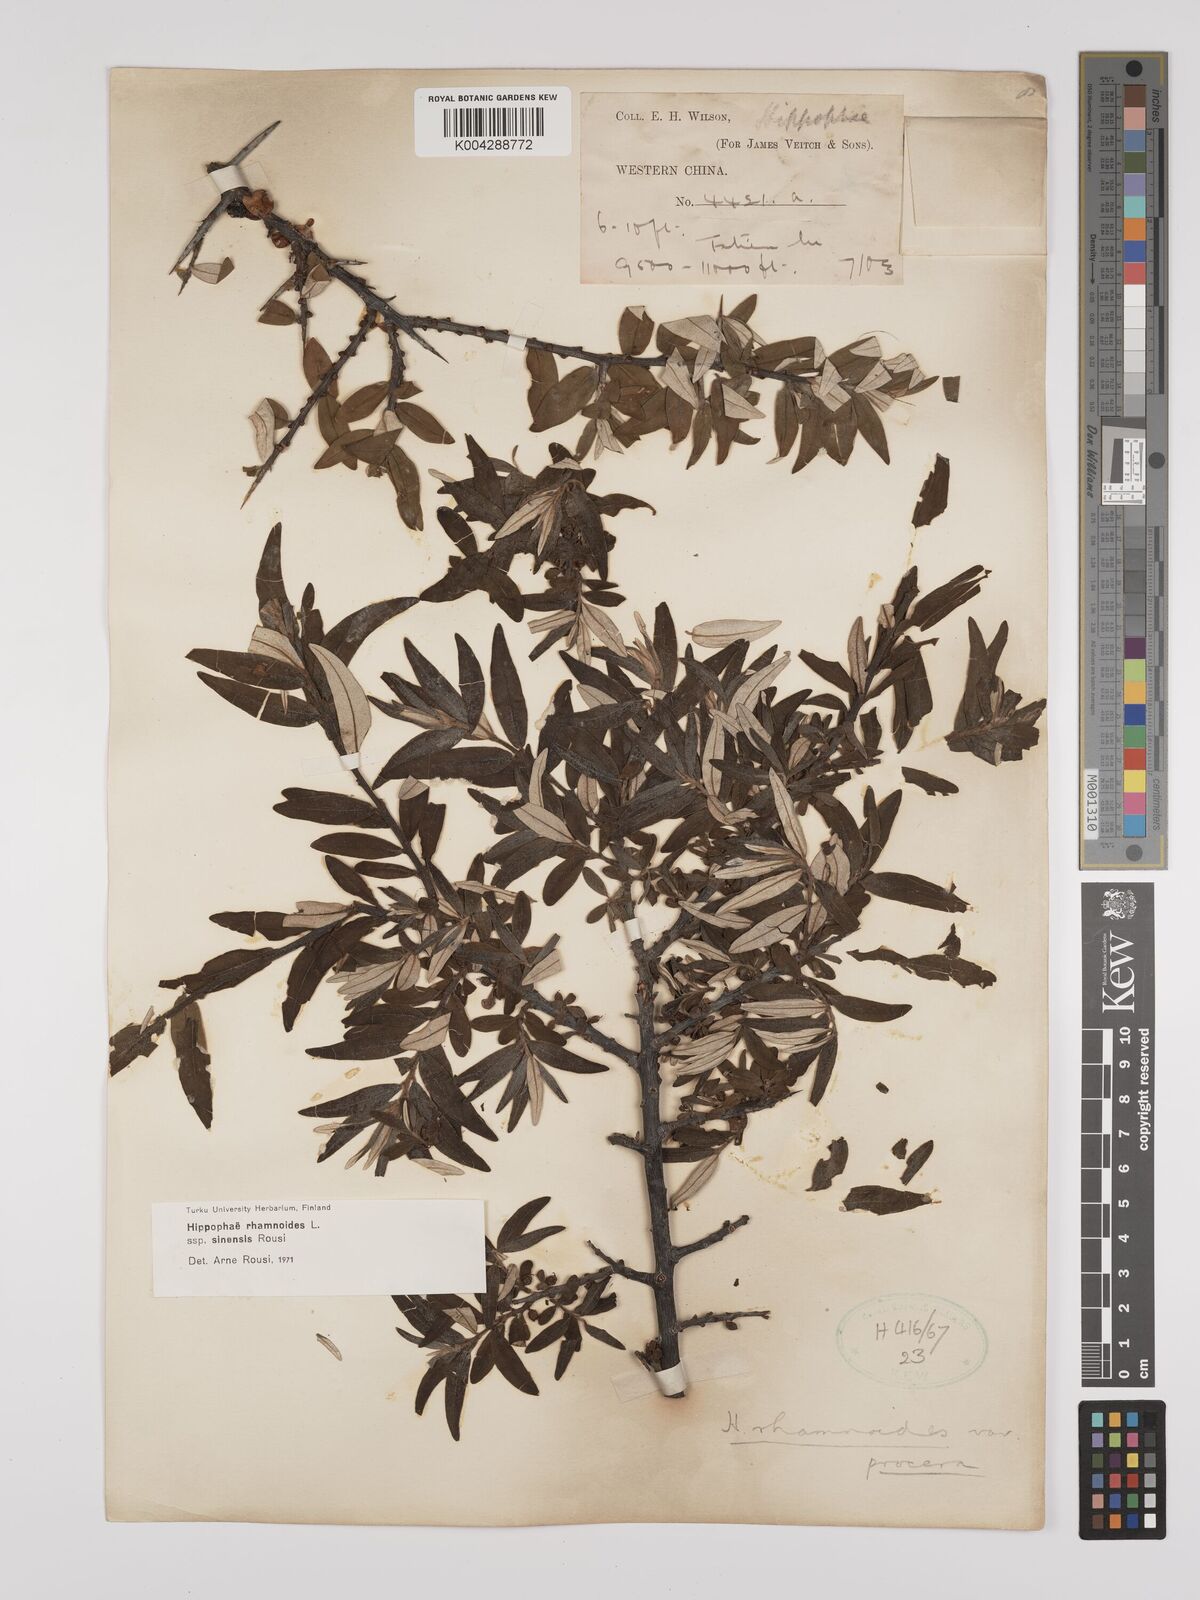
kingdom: Plantae
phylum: Tracheophyta
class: Magnoliopsida
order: Rosales
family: Elaeagnaceae
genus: Hippophae
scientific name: Hippophae rhamnoides
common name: Sea-buckthorn
